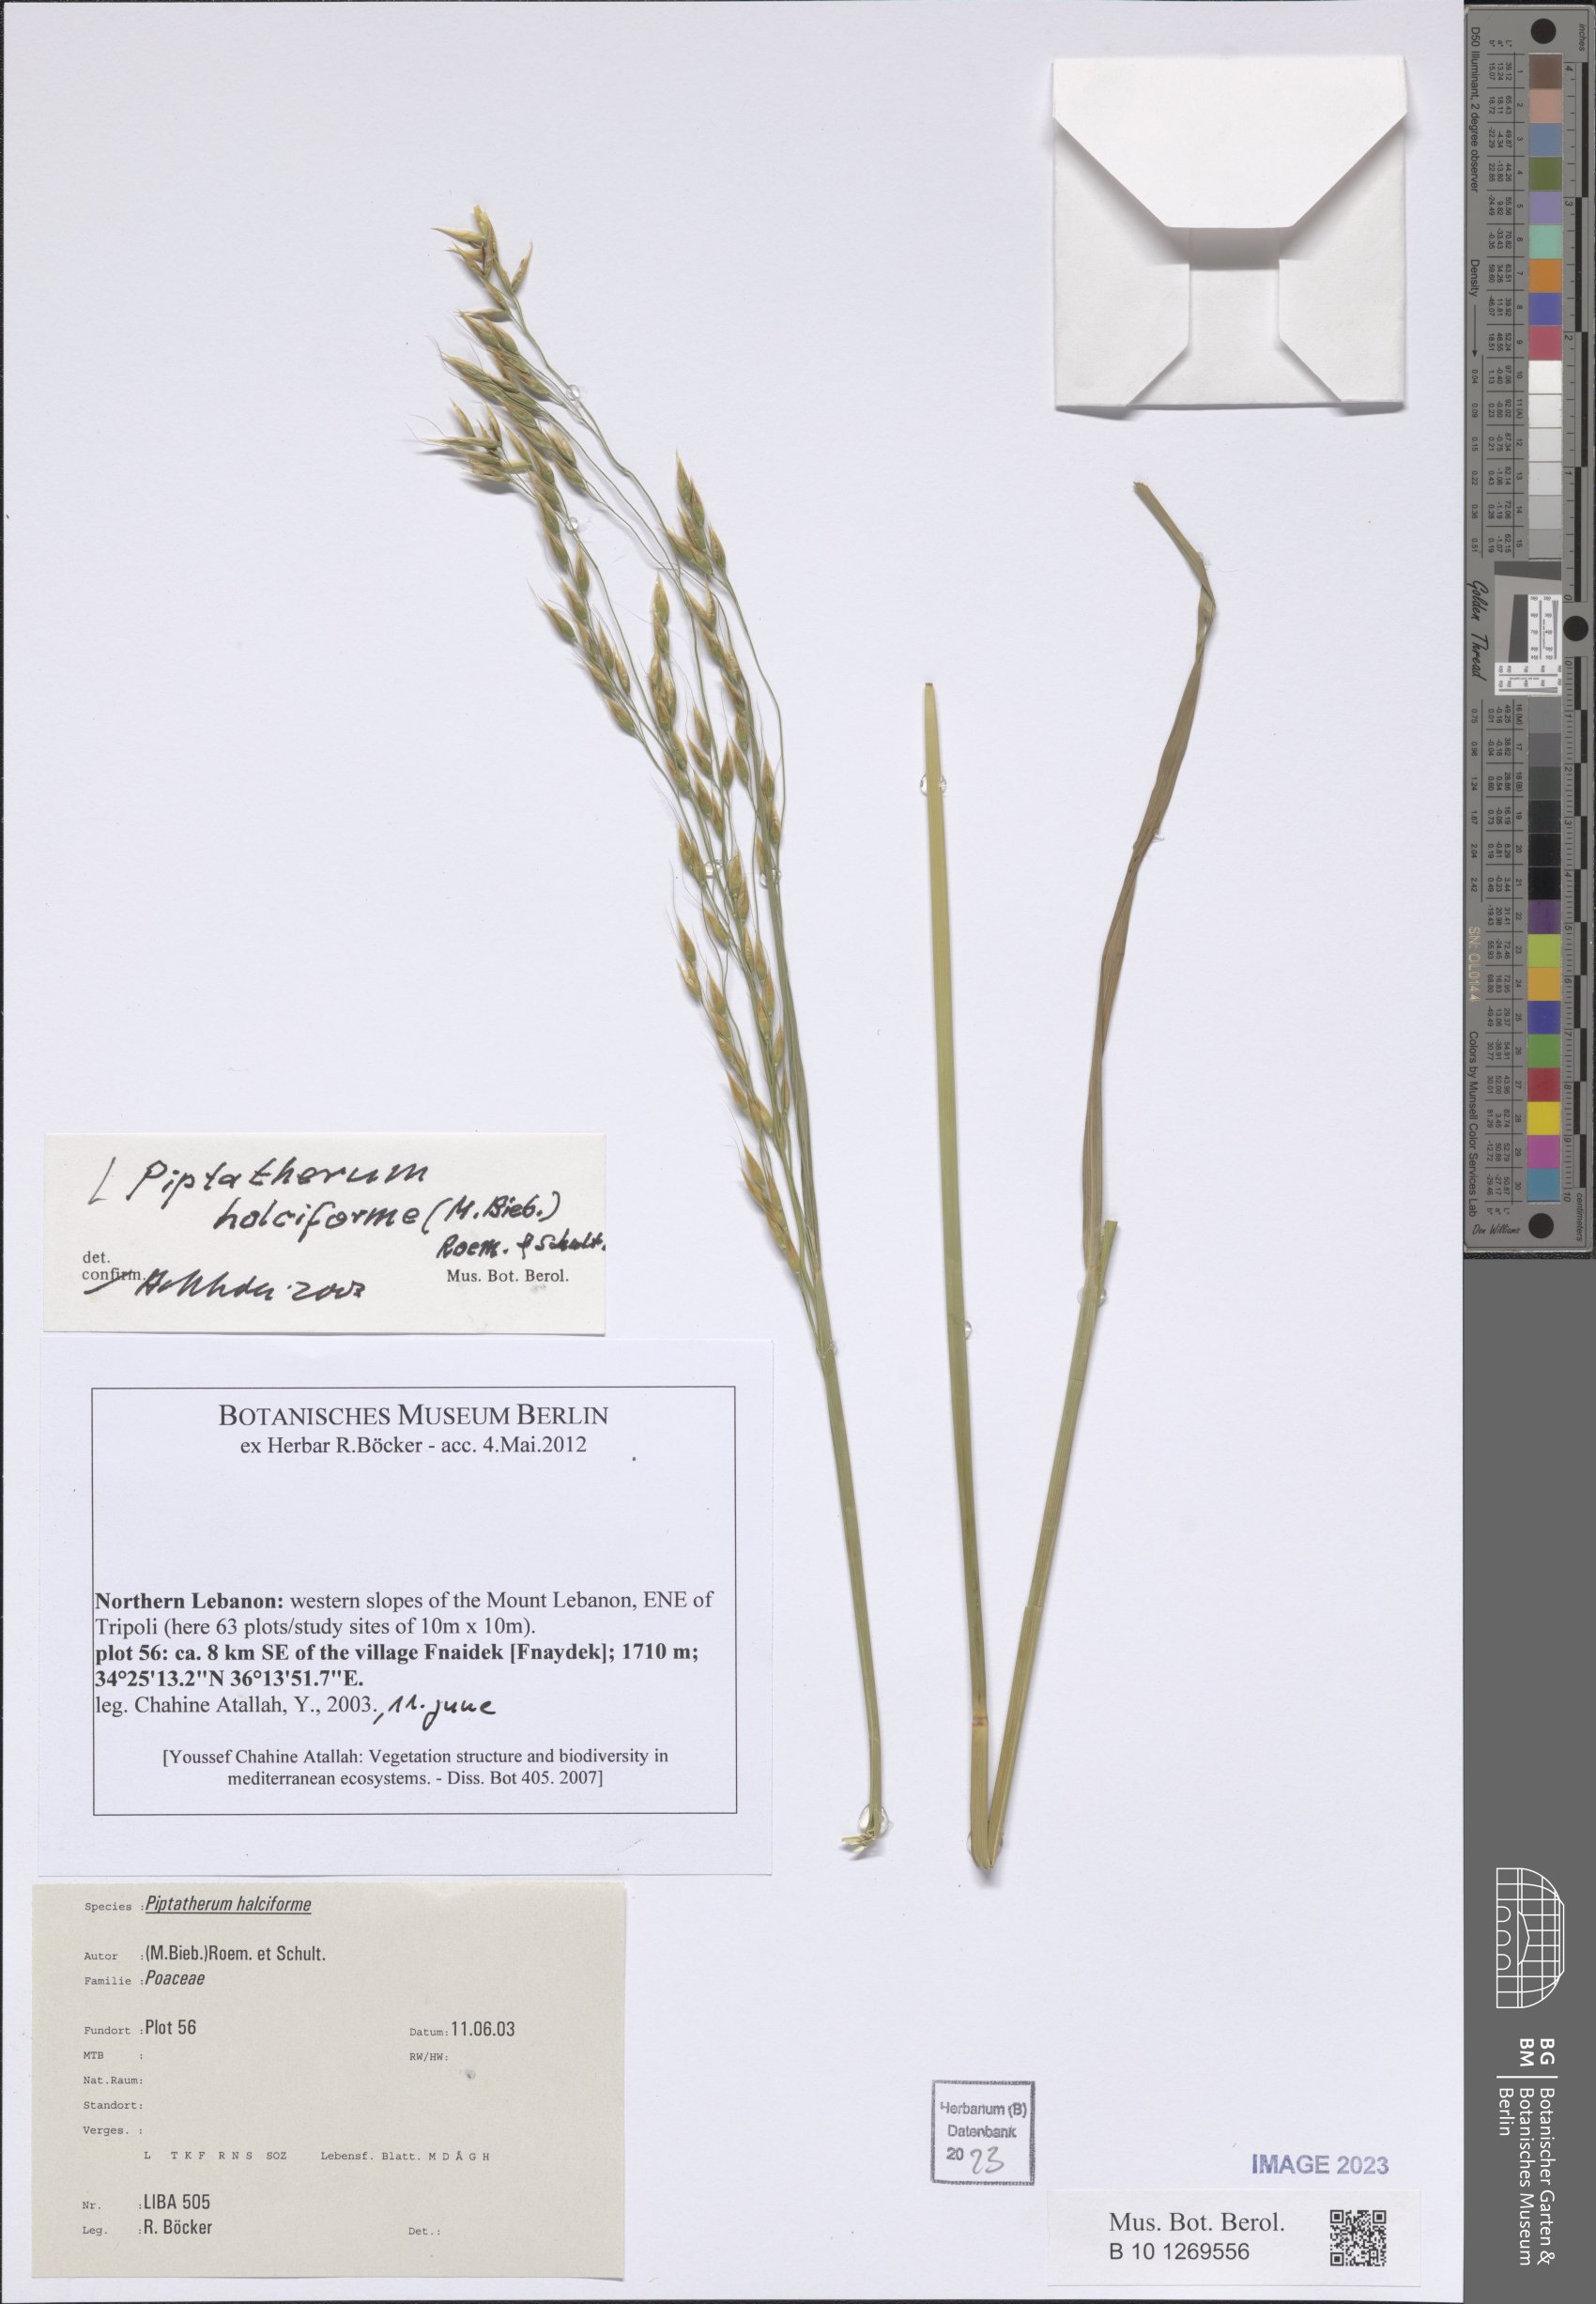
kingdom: Plantae
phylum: Tracheophyta
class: Liliopsida
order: Poales
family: Poaceae
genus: Piptatherum
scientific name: Piptatherum holciforme
